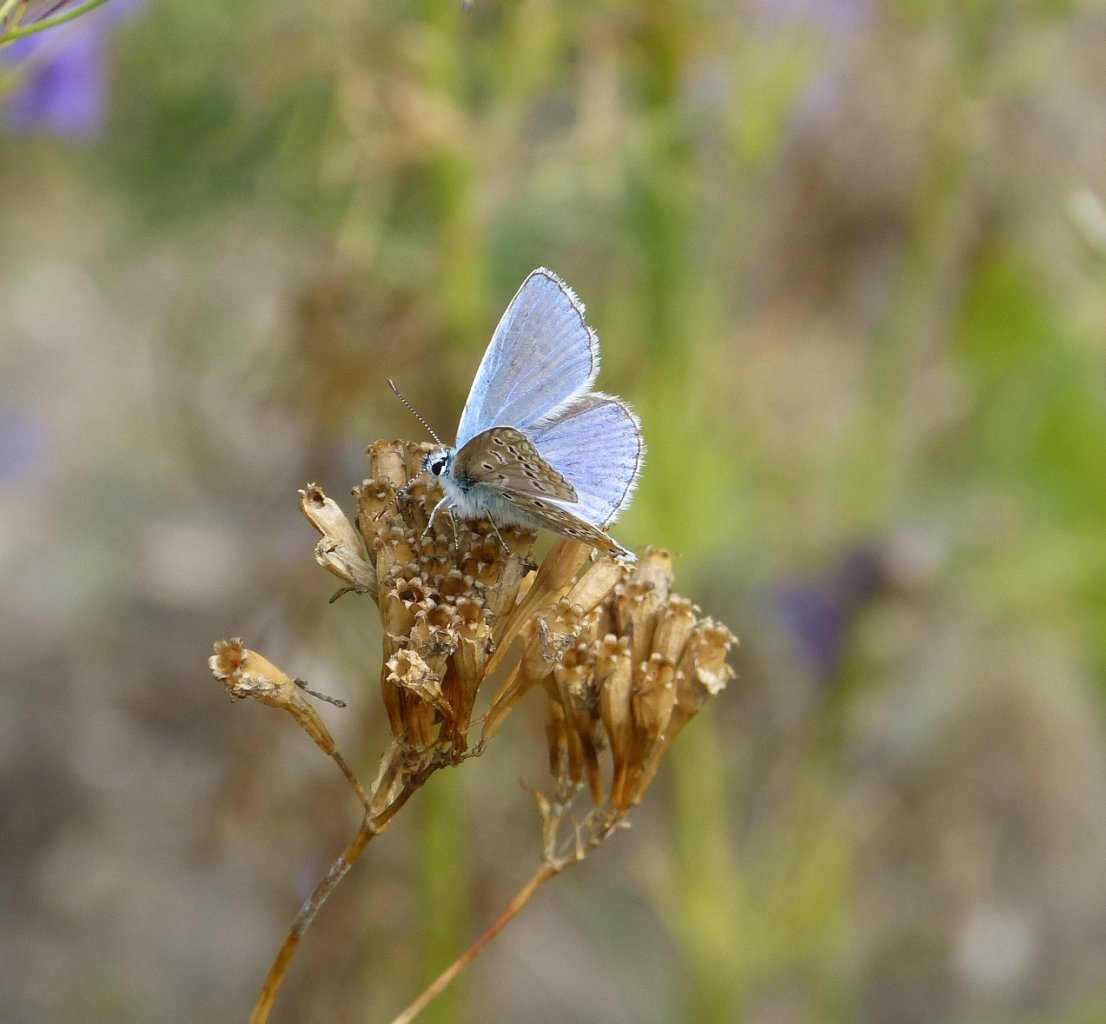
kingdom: Animalia
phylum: Arthropoda
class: Insecta
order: Lepidoptera
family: Lycaenidae
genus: Polyommatus
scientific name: Polyommatus icarus
